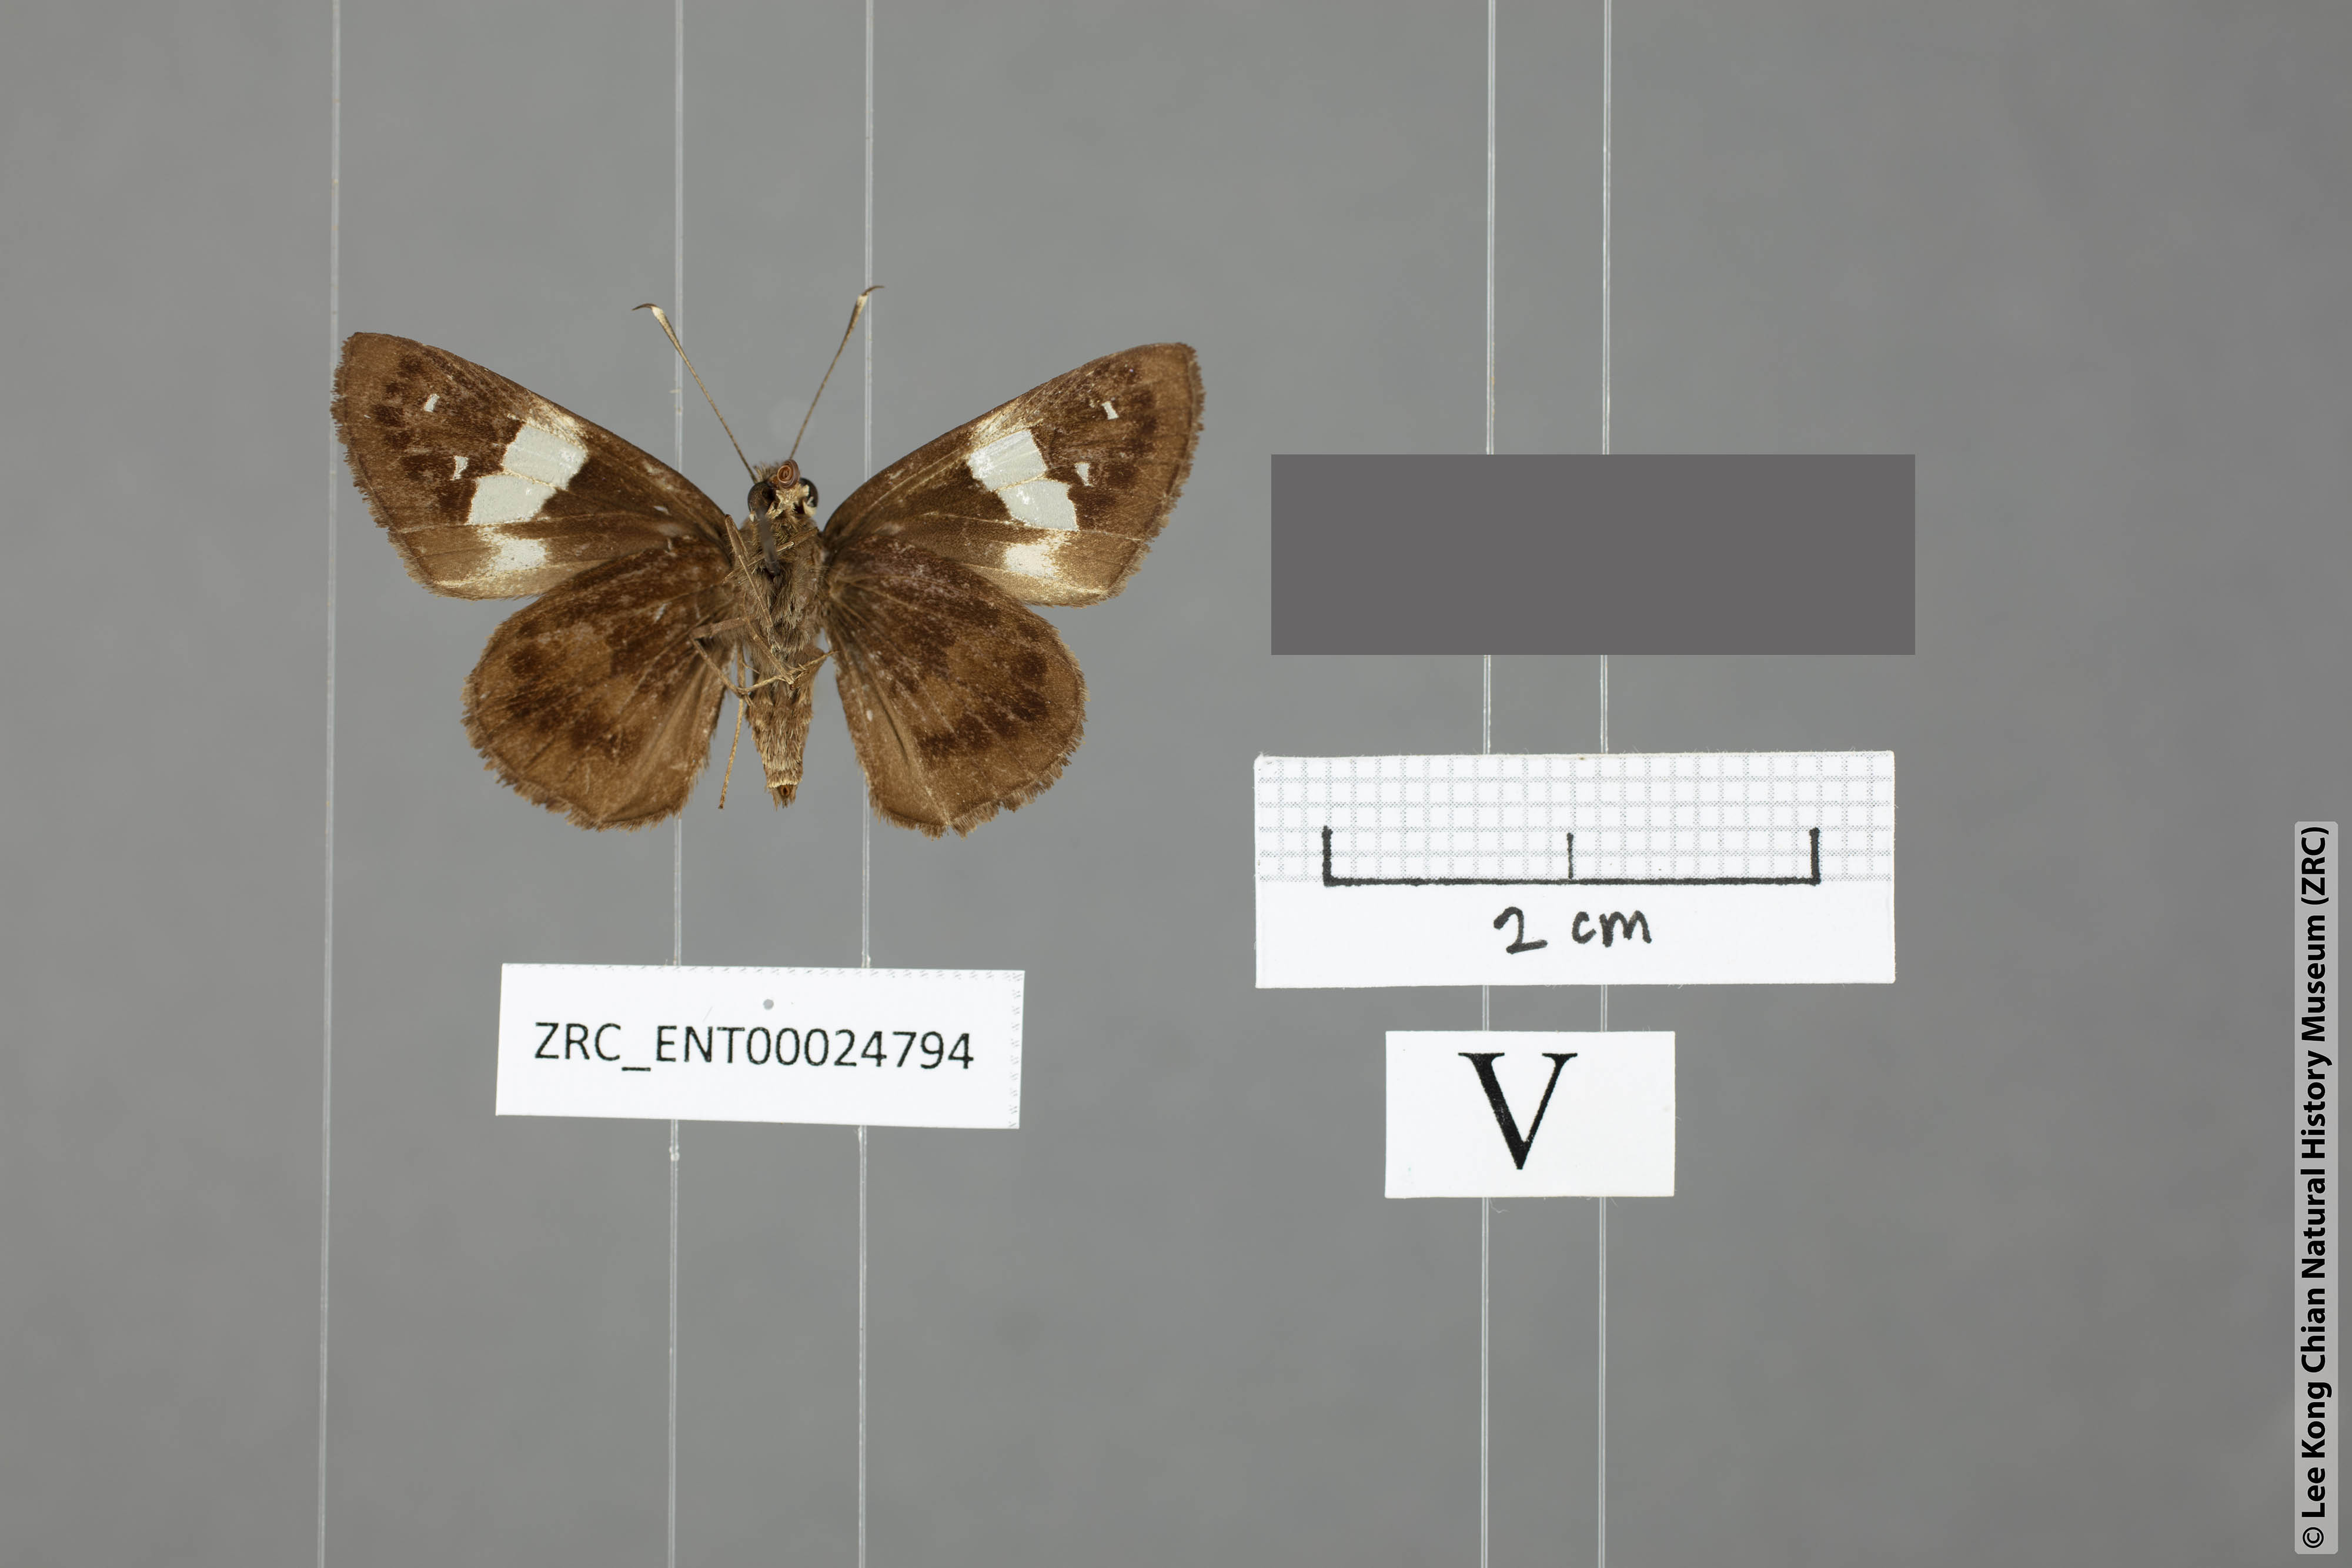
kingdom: Animalia
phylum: Arthropoda
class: Insecta
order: Lepidoptera
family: Hesperiidae
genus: Hyarotis
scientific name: Hyarotis stubbsi
